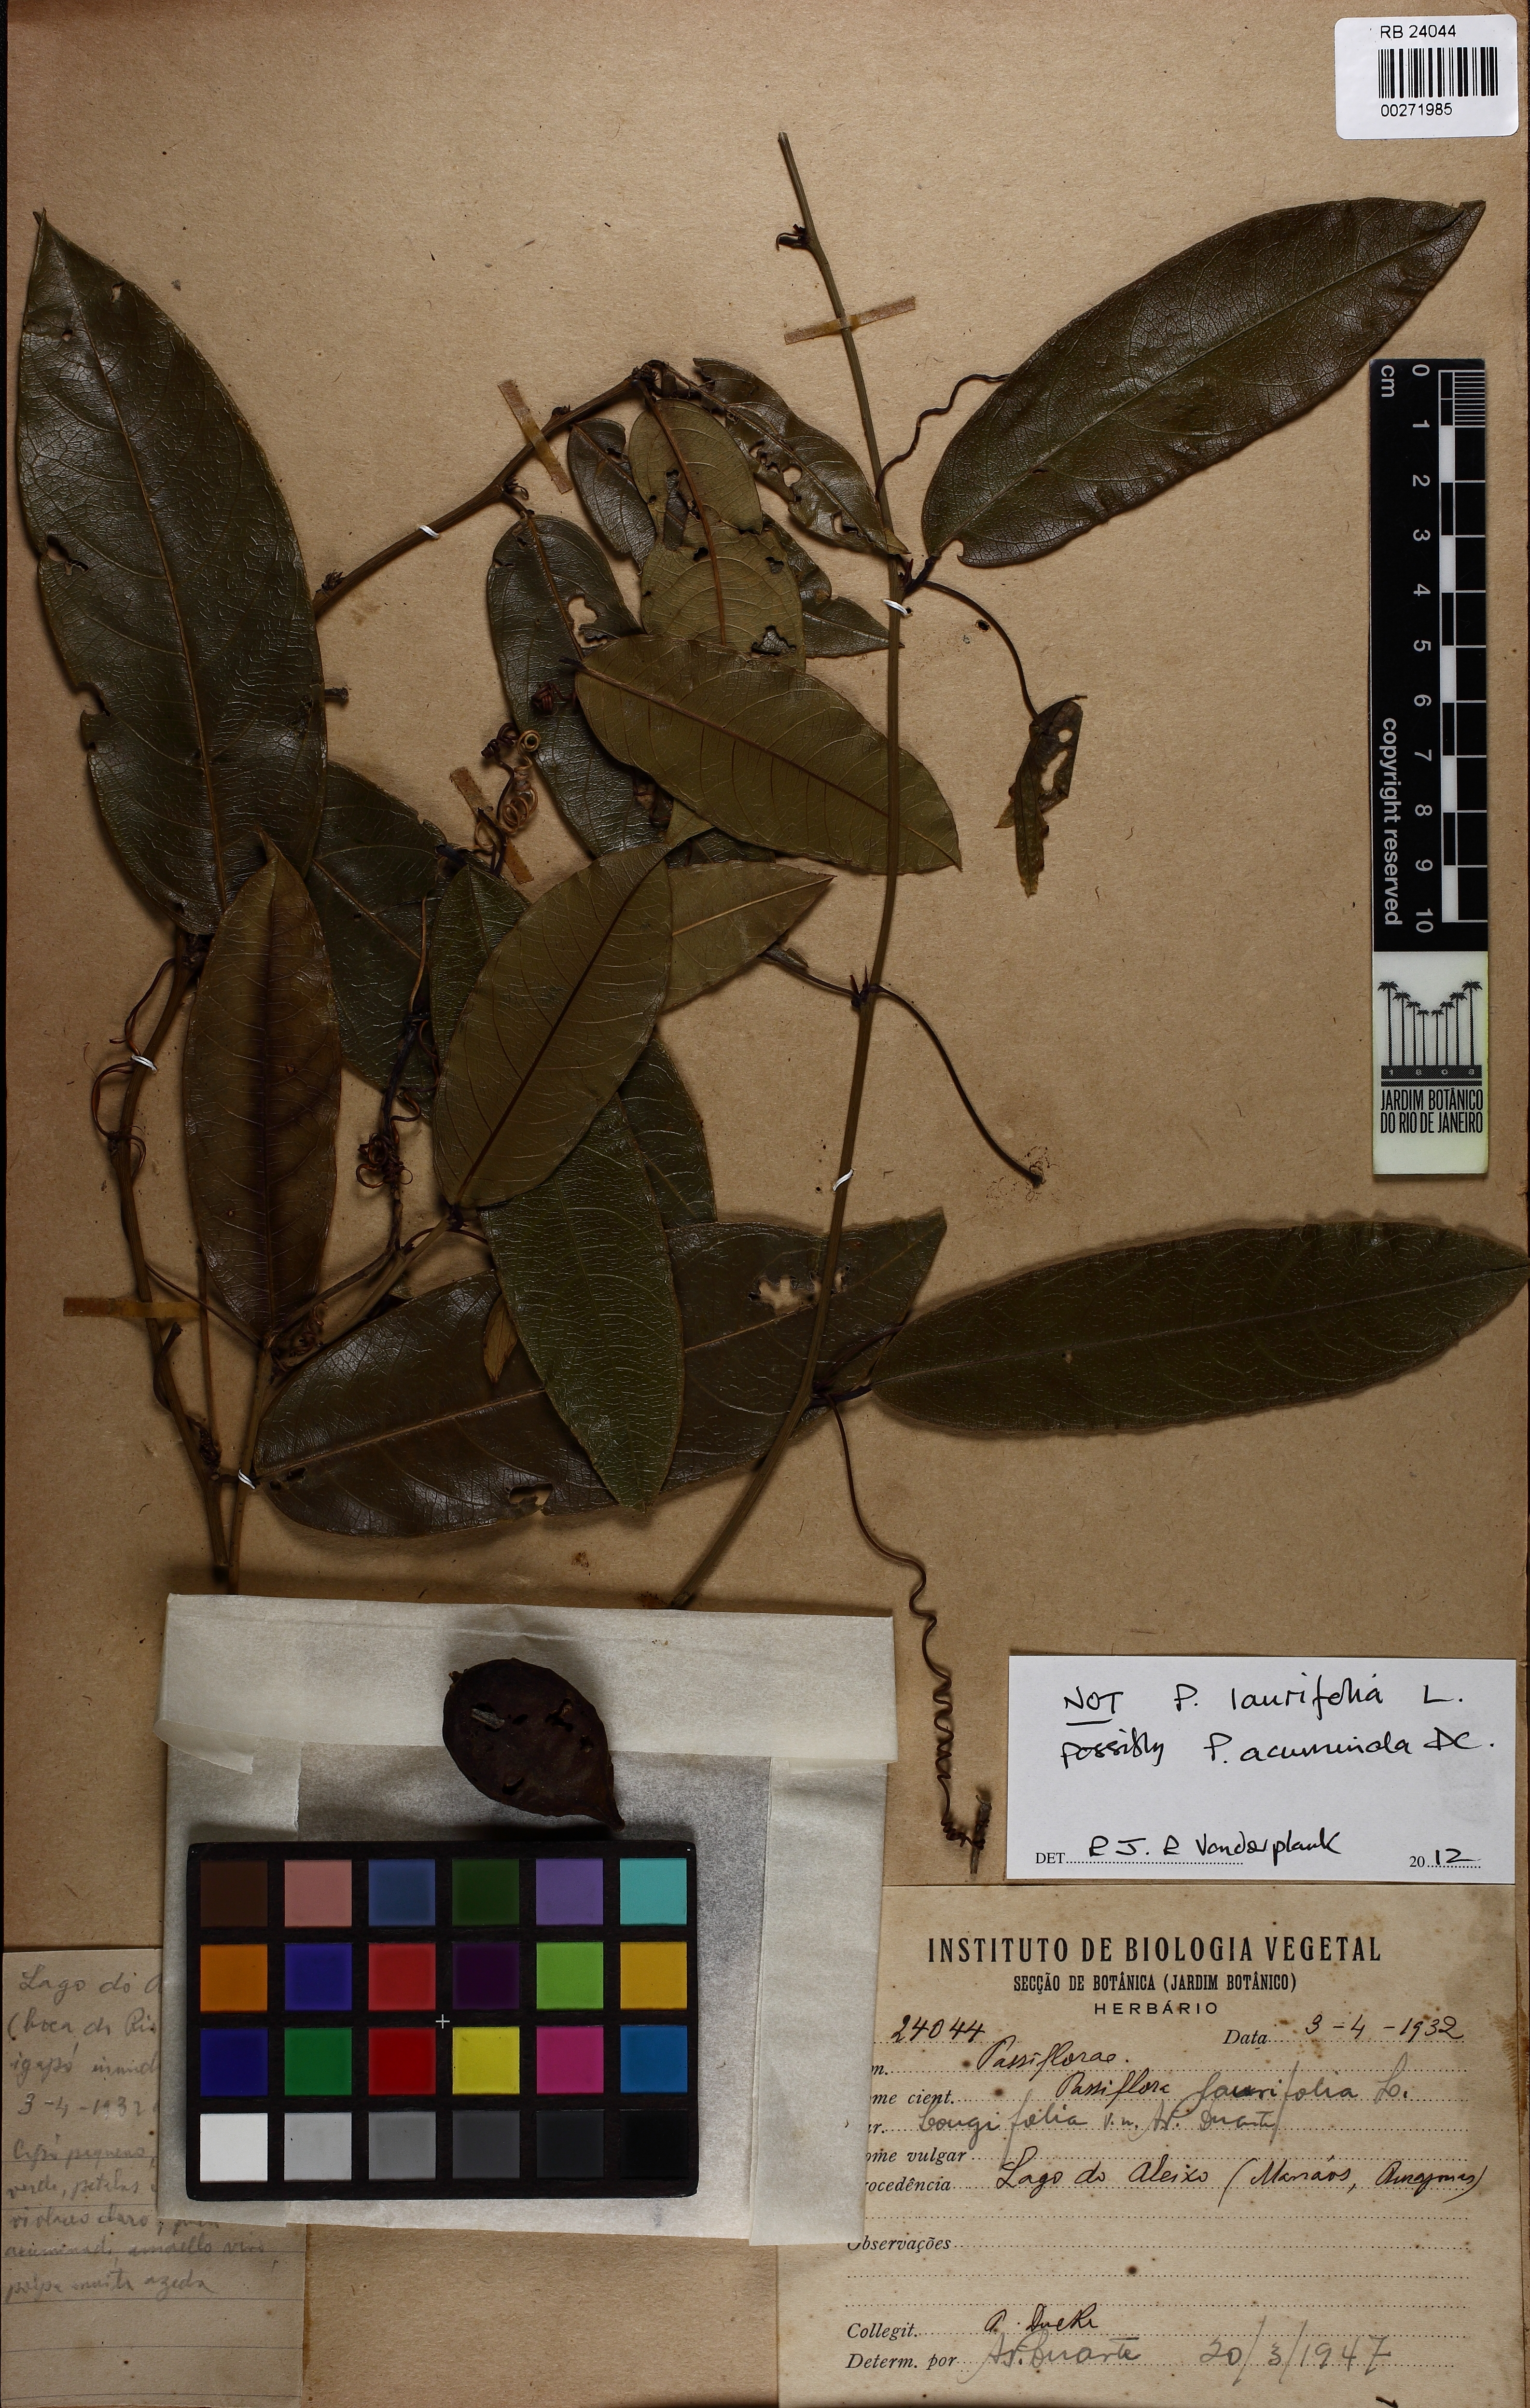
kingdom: Plantae
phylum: Tracheophyta
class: Magnoliopsida
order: Malpighiales
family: Passifloraceae
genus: Passiflora
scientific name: Passiflora acuminata
